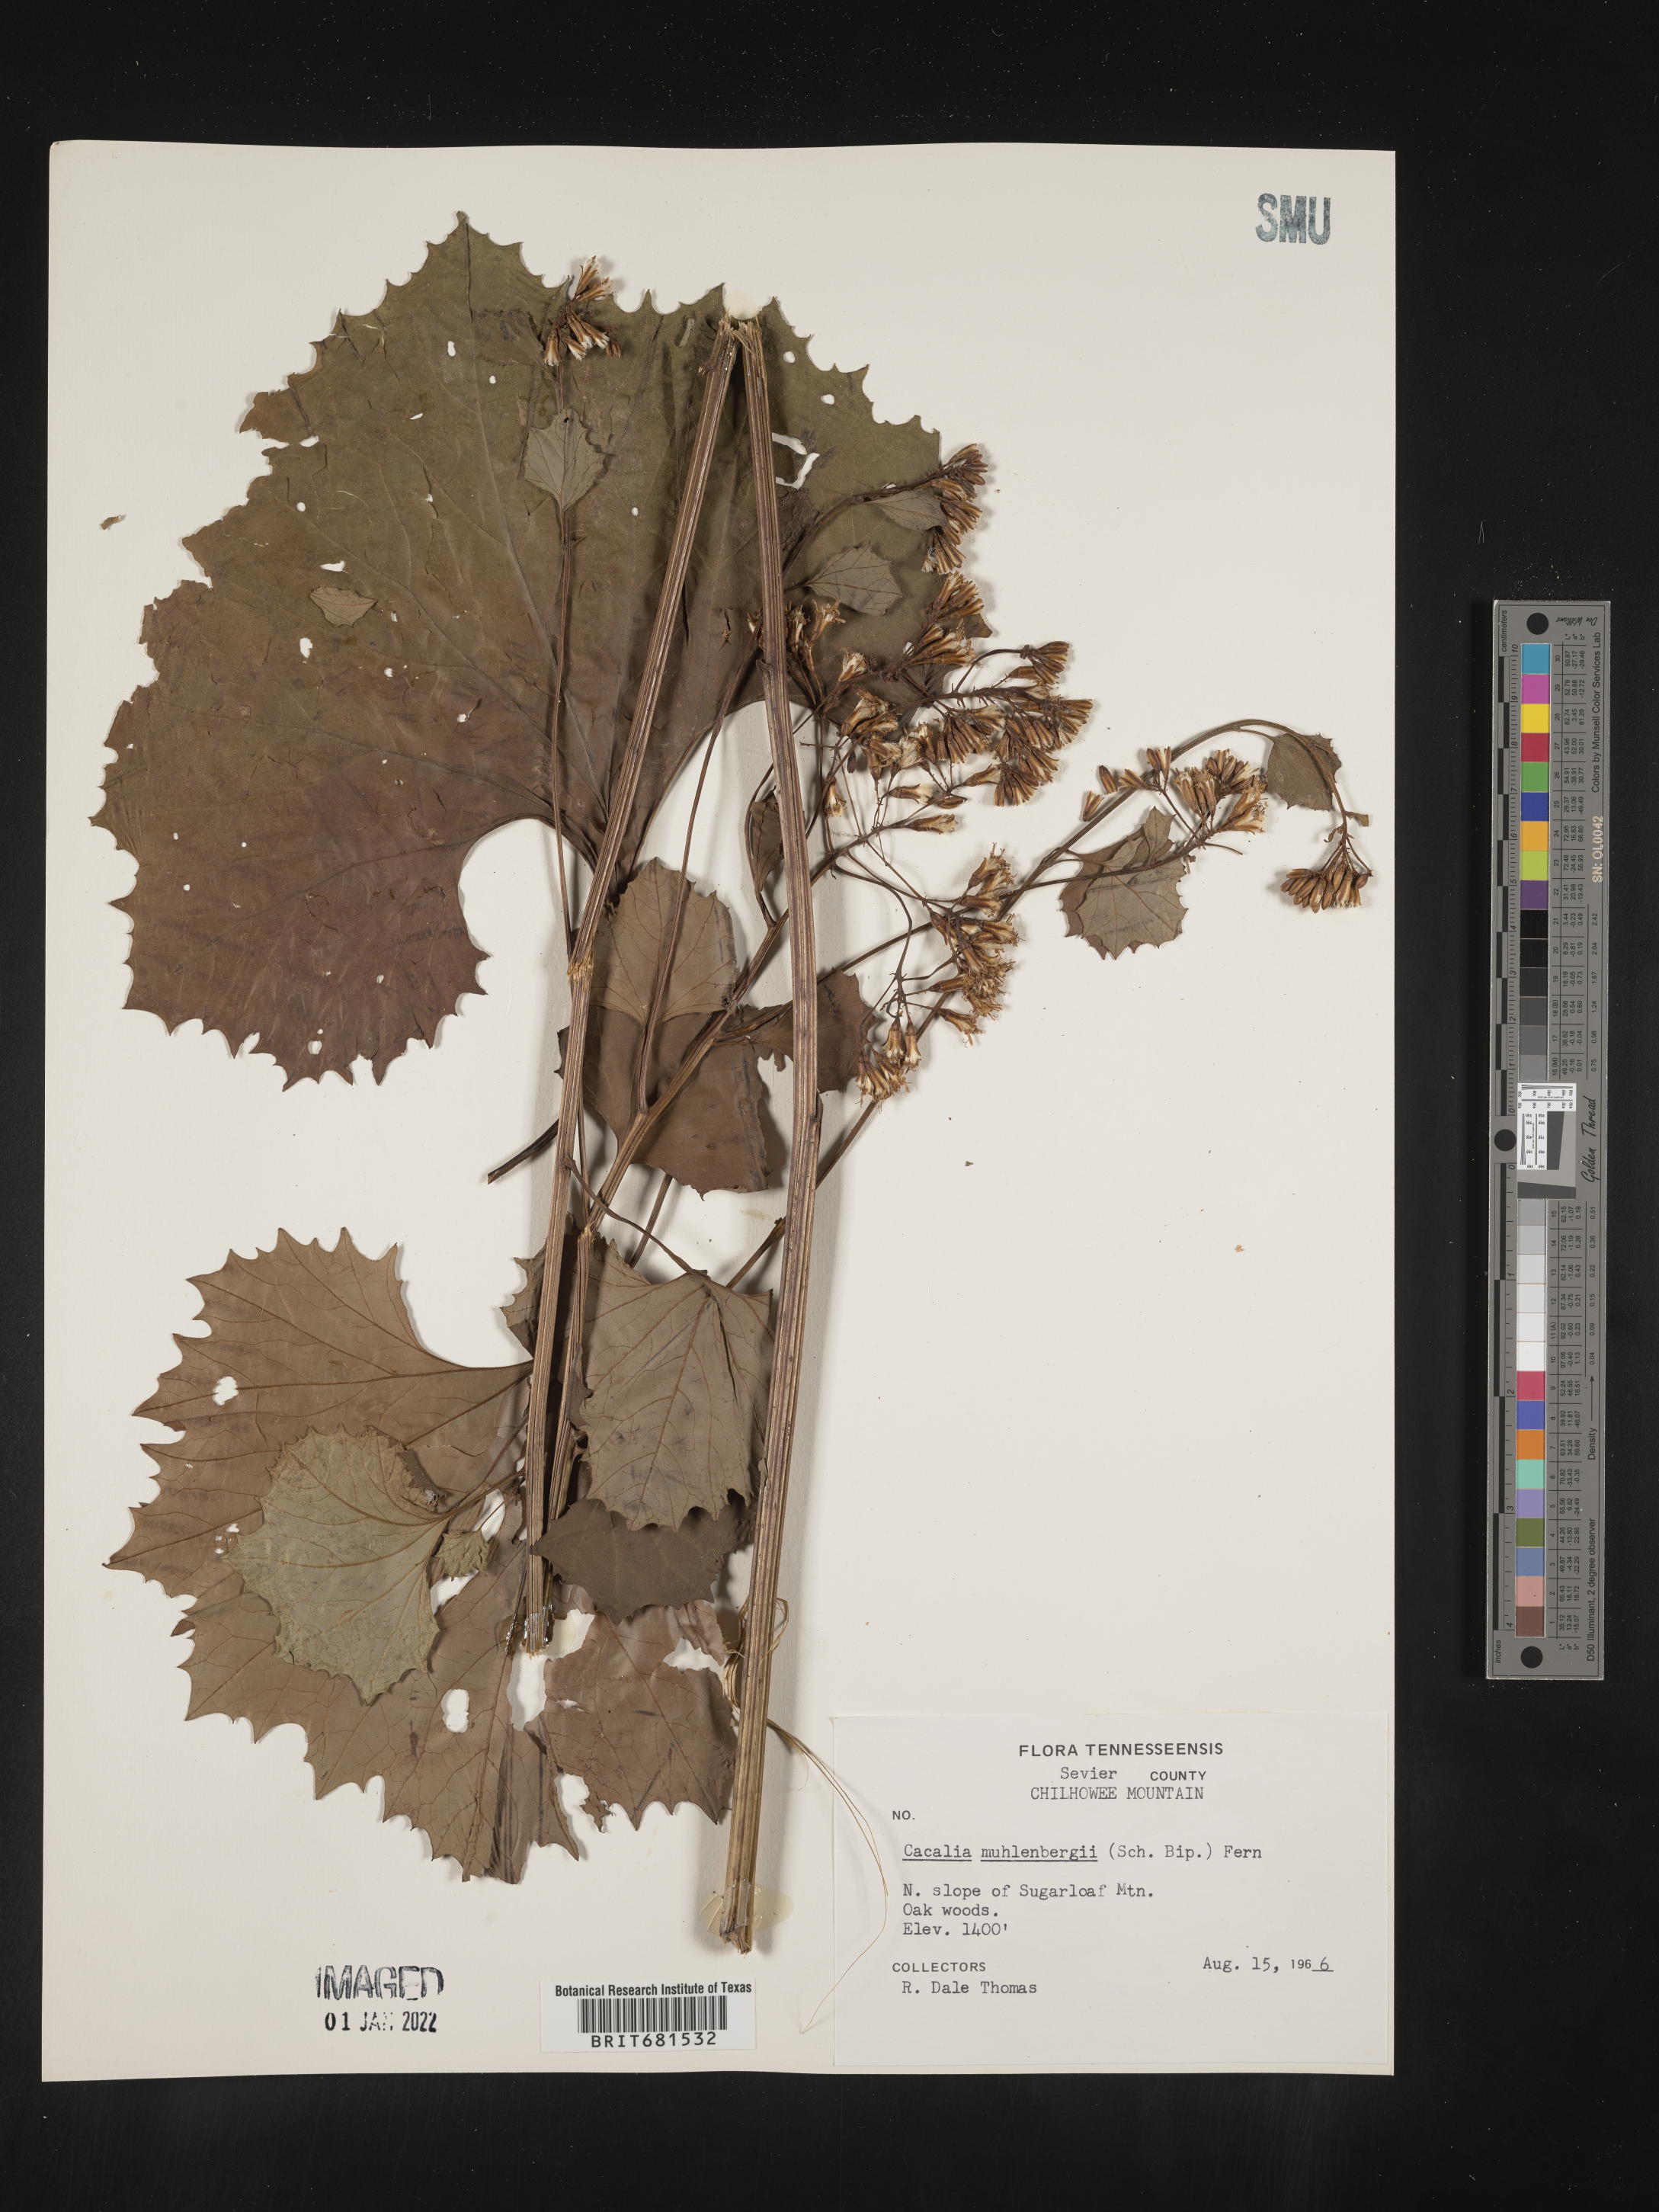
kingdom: Plantae
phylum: Tracheophyta
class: Magnoliopsida
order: Asterales
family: Asteraceae
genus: Arnoglossum
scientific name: Arnoglossum reniforme
